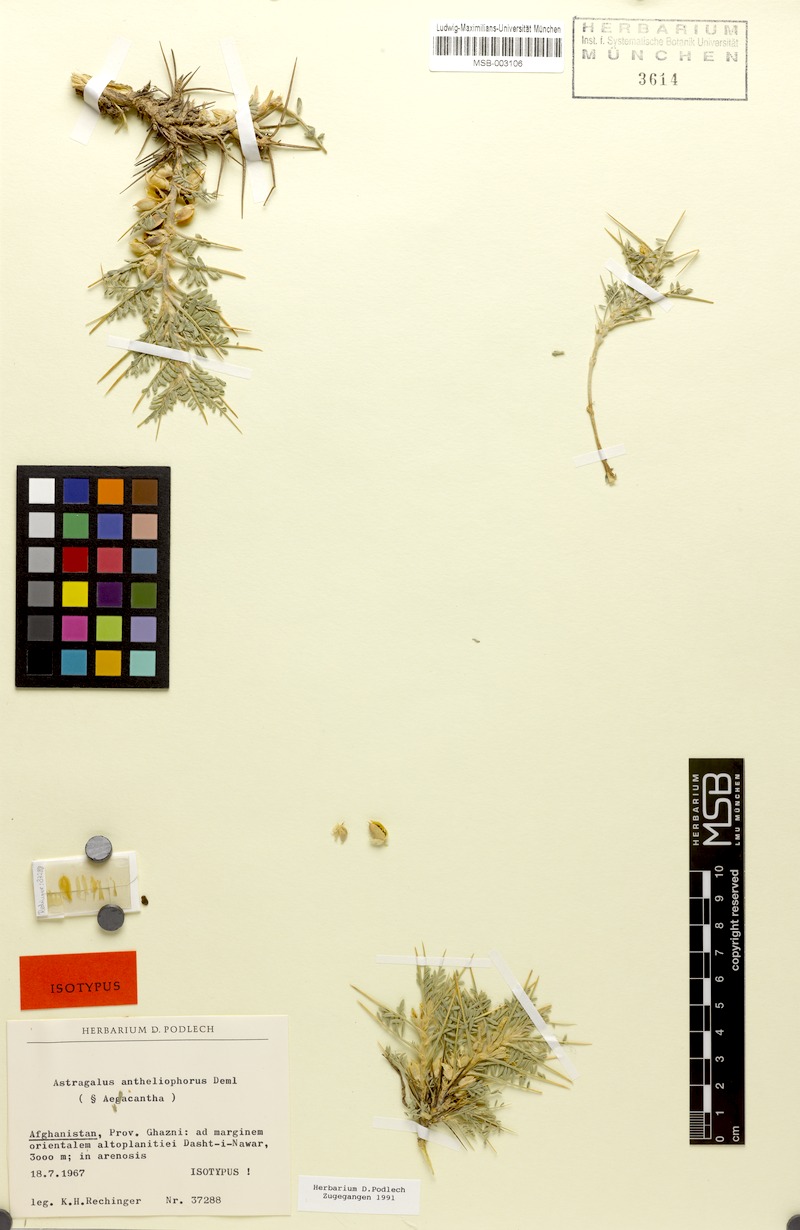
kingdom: Plantae
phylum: Tracheophyta
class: Magnoliopsida
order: Fabales
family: Fabaceae
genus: Astragalus
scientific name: Astragalus antheliophorus
